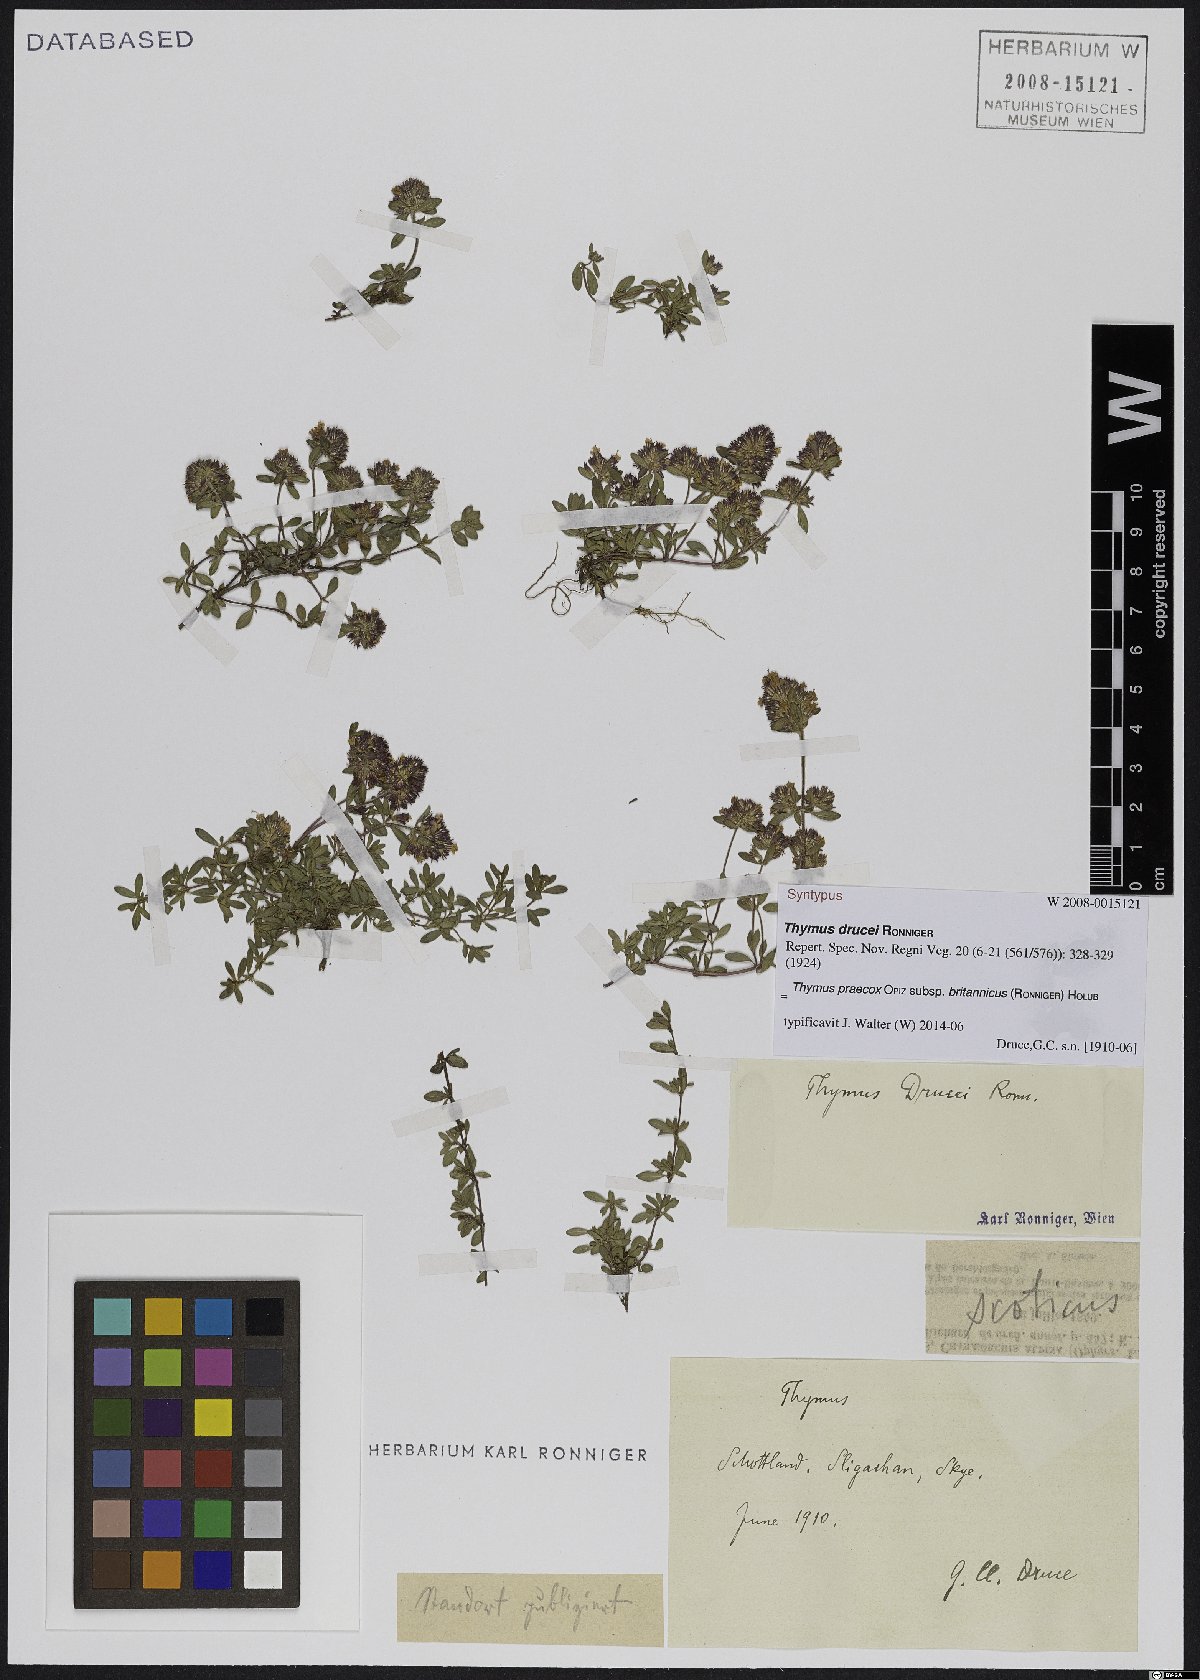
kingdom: Plantae
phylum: Tracheophyta
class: Magnoliopsida
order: Lamiales
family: Lamiaceae
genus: Thymus
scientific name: Thymus praecox
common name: Wild thyme
